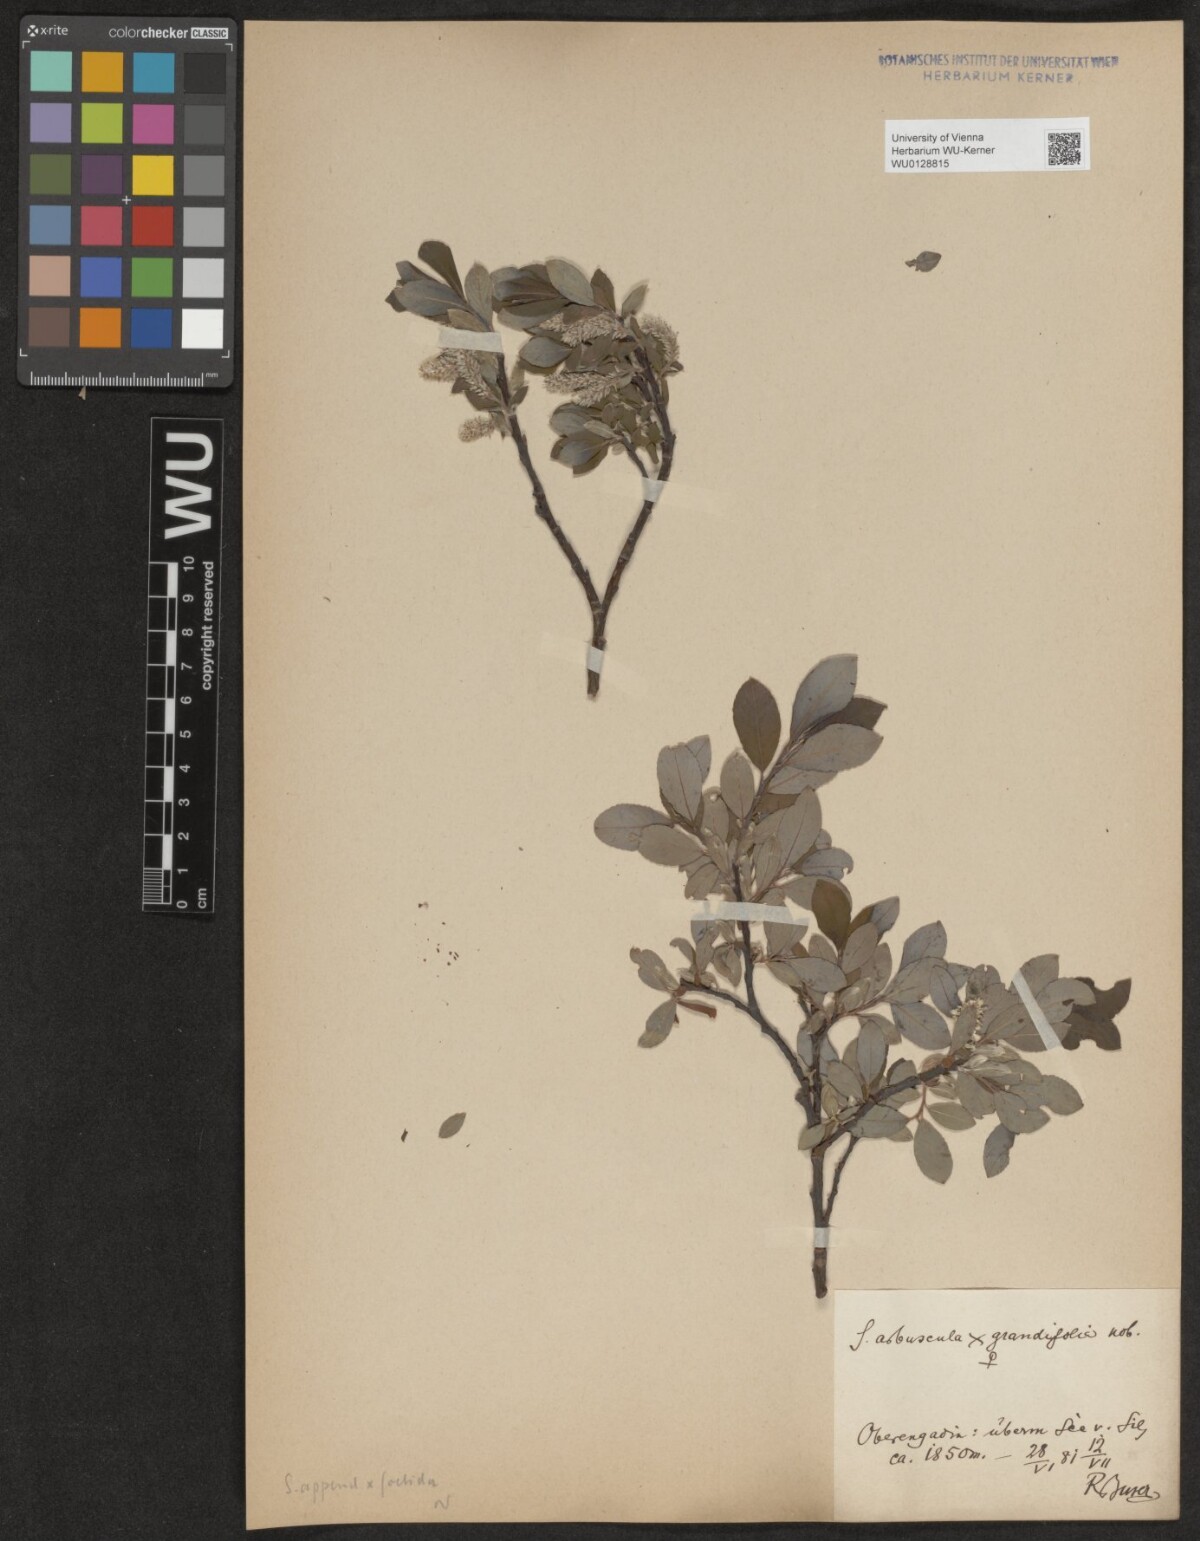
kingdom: Plantae
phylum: Tracheophyta
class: Magnoliopsida
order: Malpighiales
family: Salicaceae
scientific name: Salicaceae
